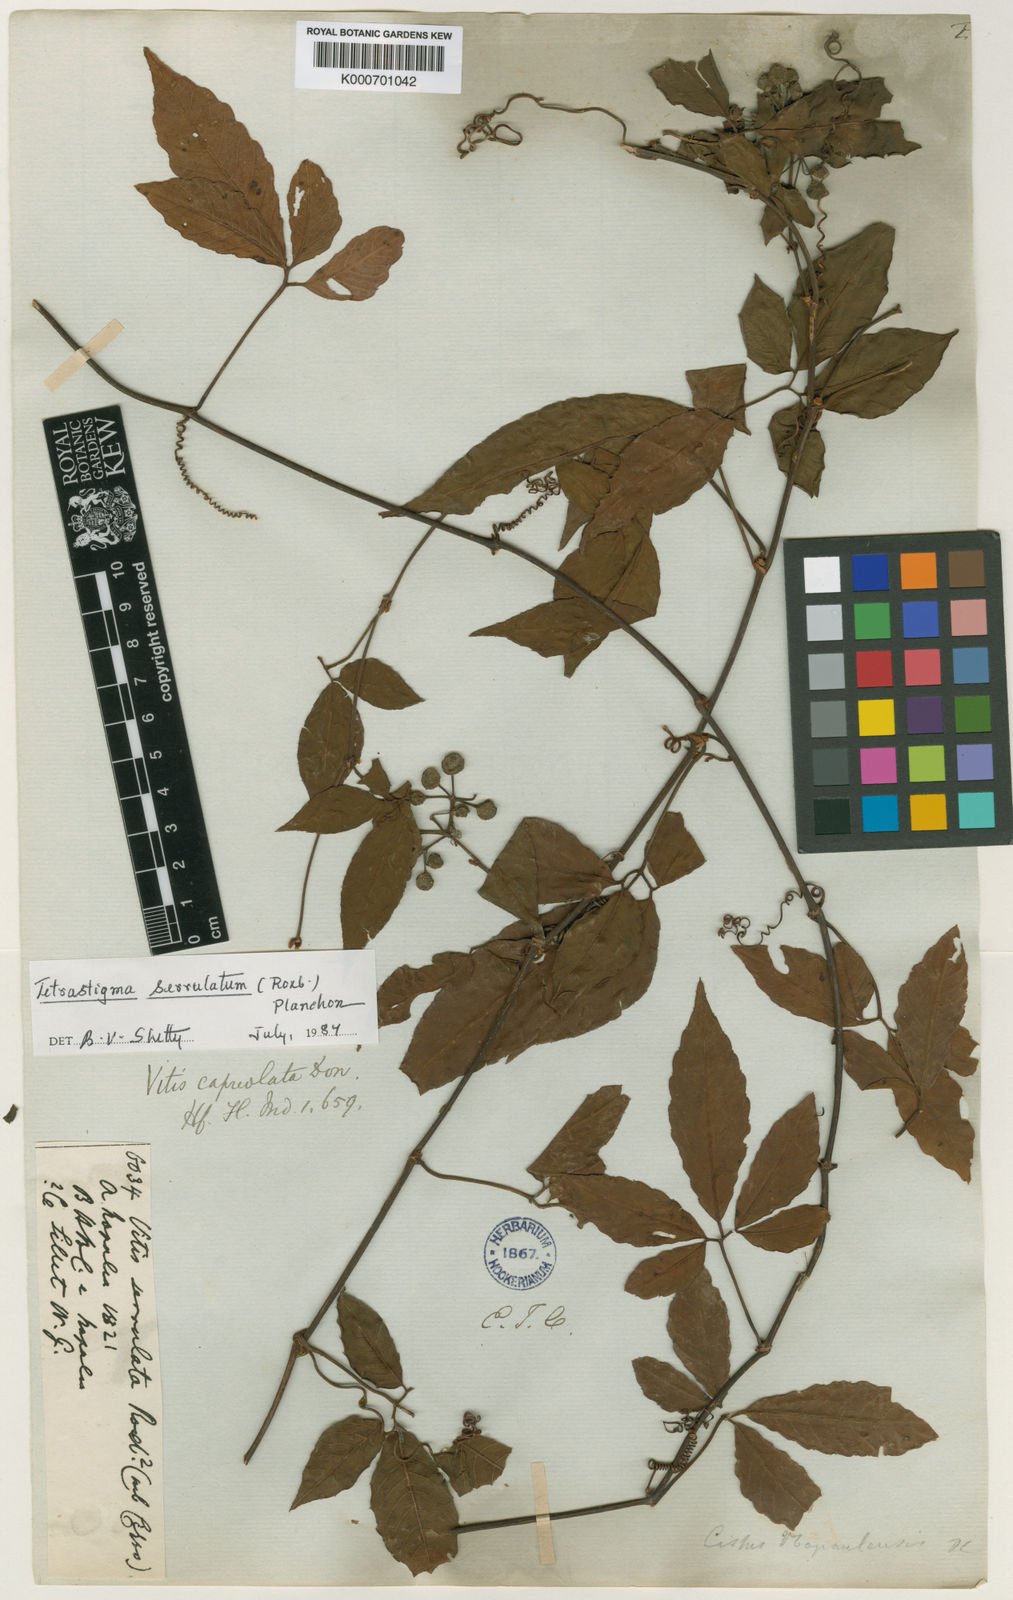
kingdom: Plantae
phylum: Tracheophyta
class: Magnoliopsida
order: Vitales
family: Vitaceae
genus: Tetrastigma
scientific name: Tetrastigma serrulatum
